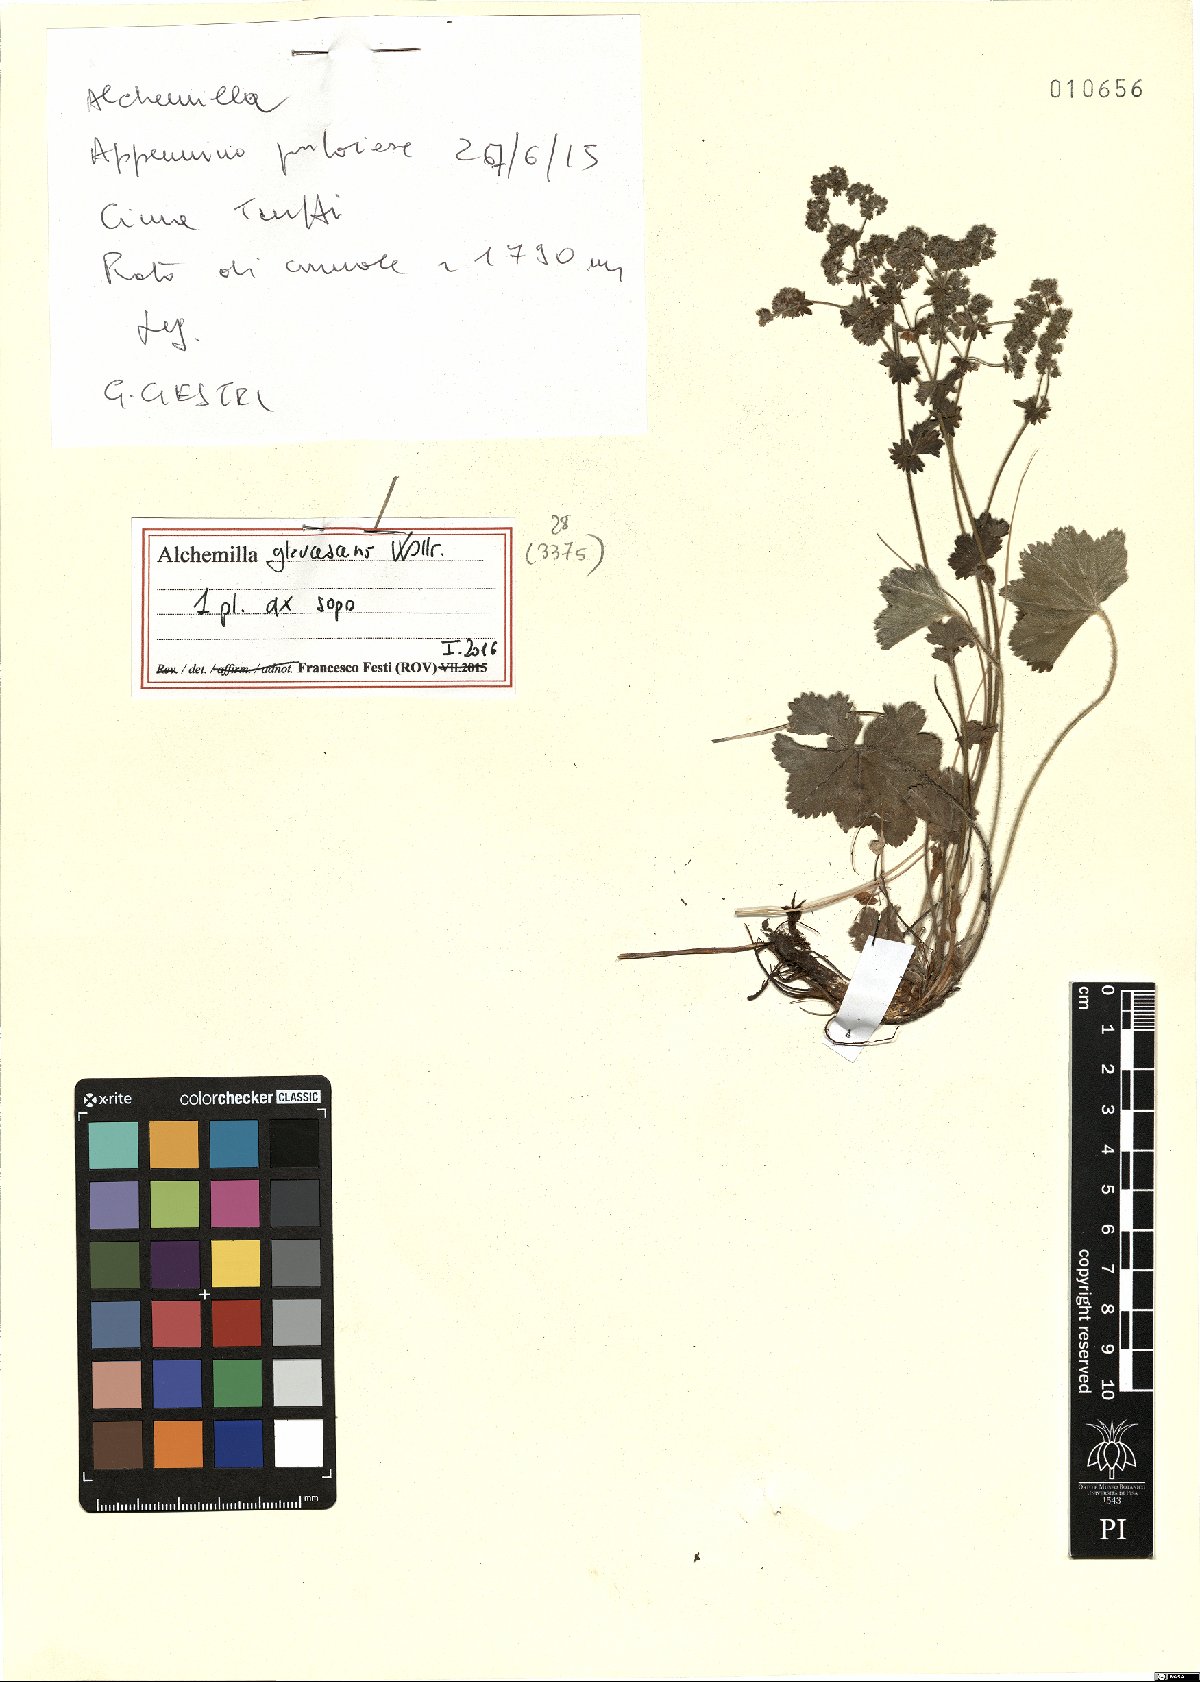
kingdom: Plantae
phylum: Tracheophyta
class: Magnoliopsida
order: Rosales
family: Rosaceae
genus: Alchemilla
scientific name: Alchemilla glaucescens
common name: Silky lady's mantle
